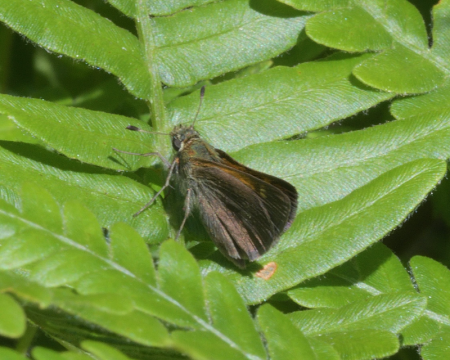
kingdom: Animalia
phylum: Arthropoda
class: Insecta
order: Lepidoptera
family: Hesperiidae
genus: Polites
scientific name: Polites themistocles
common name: Tawny-edged Skipper
